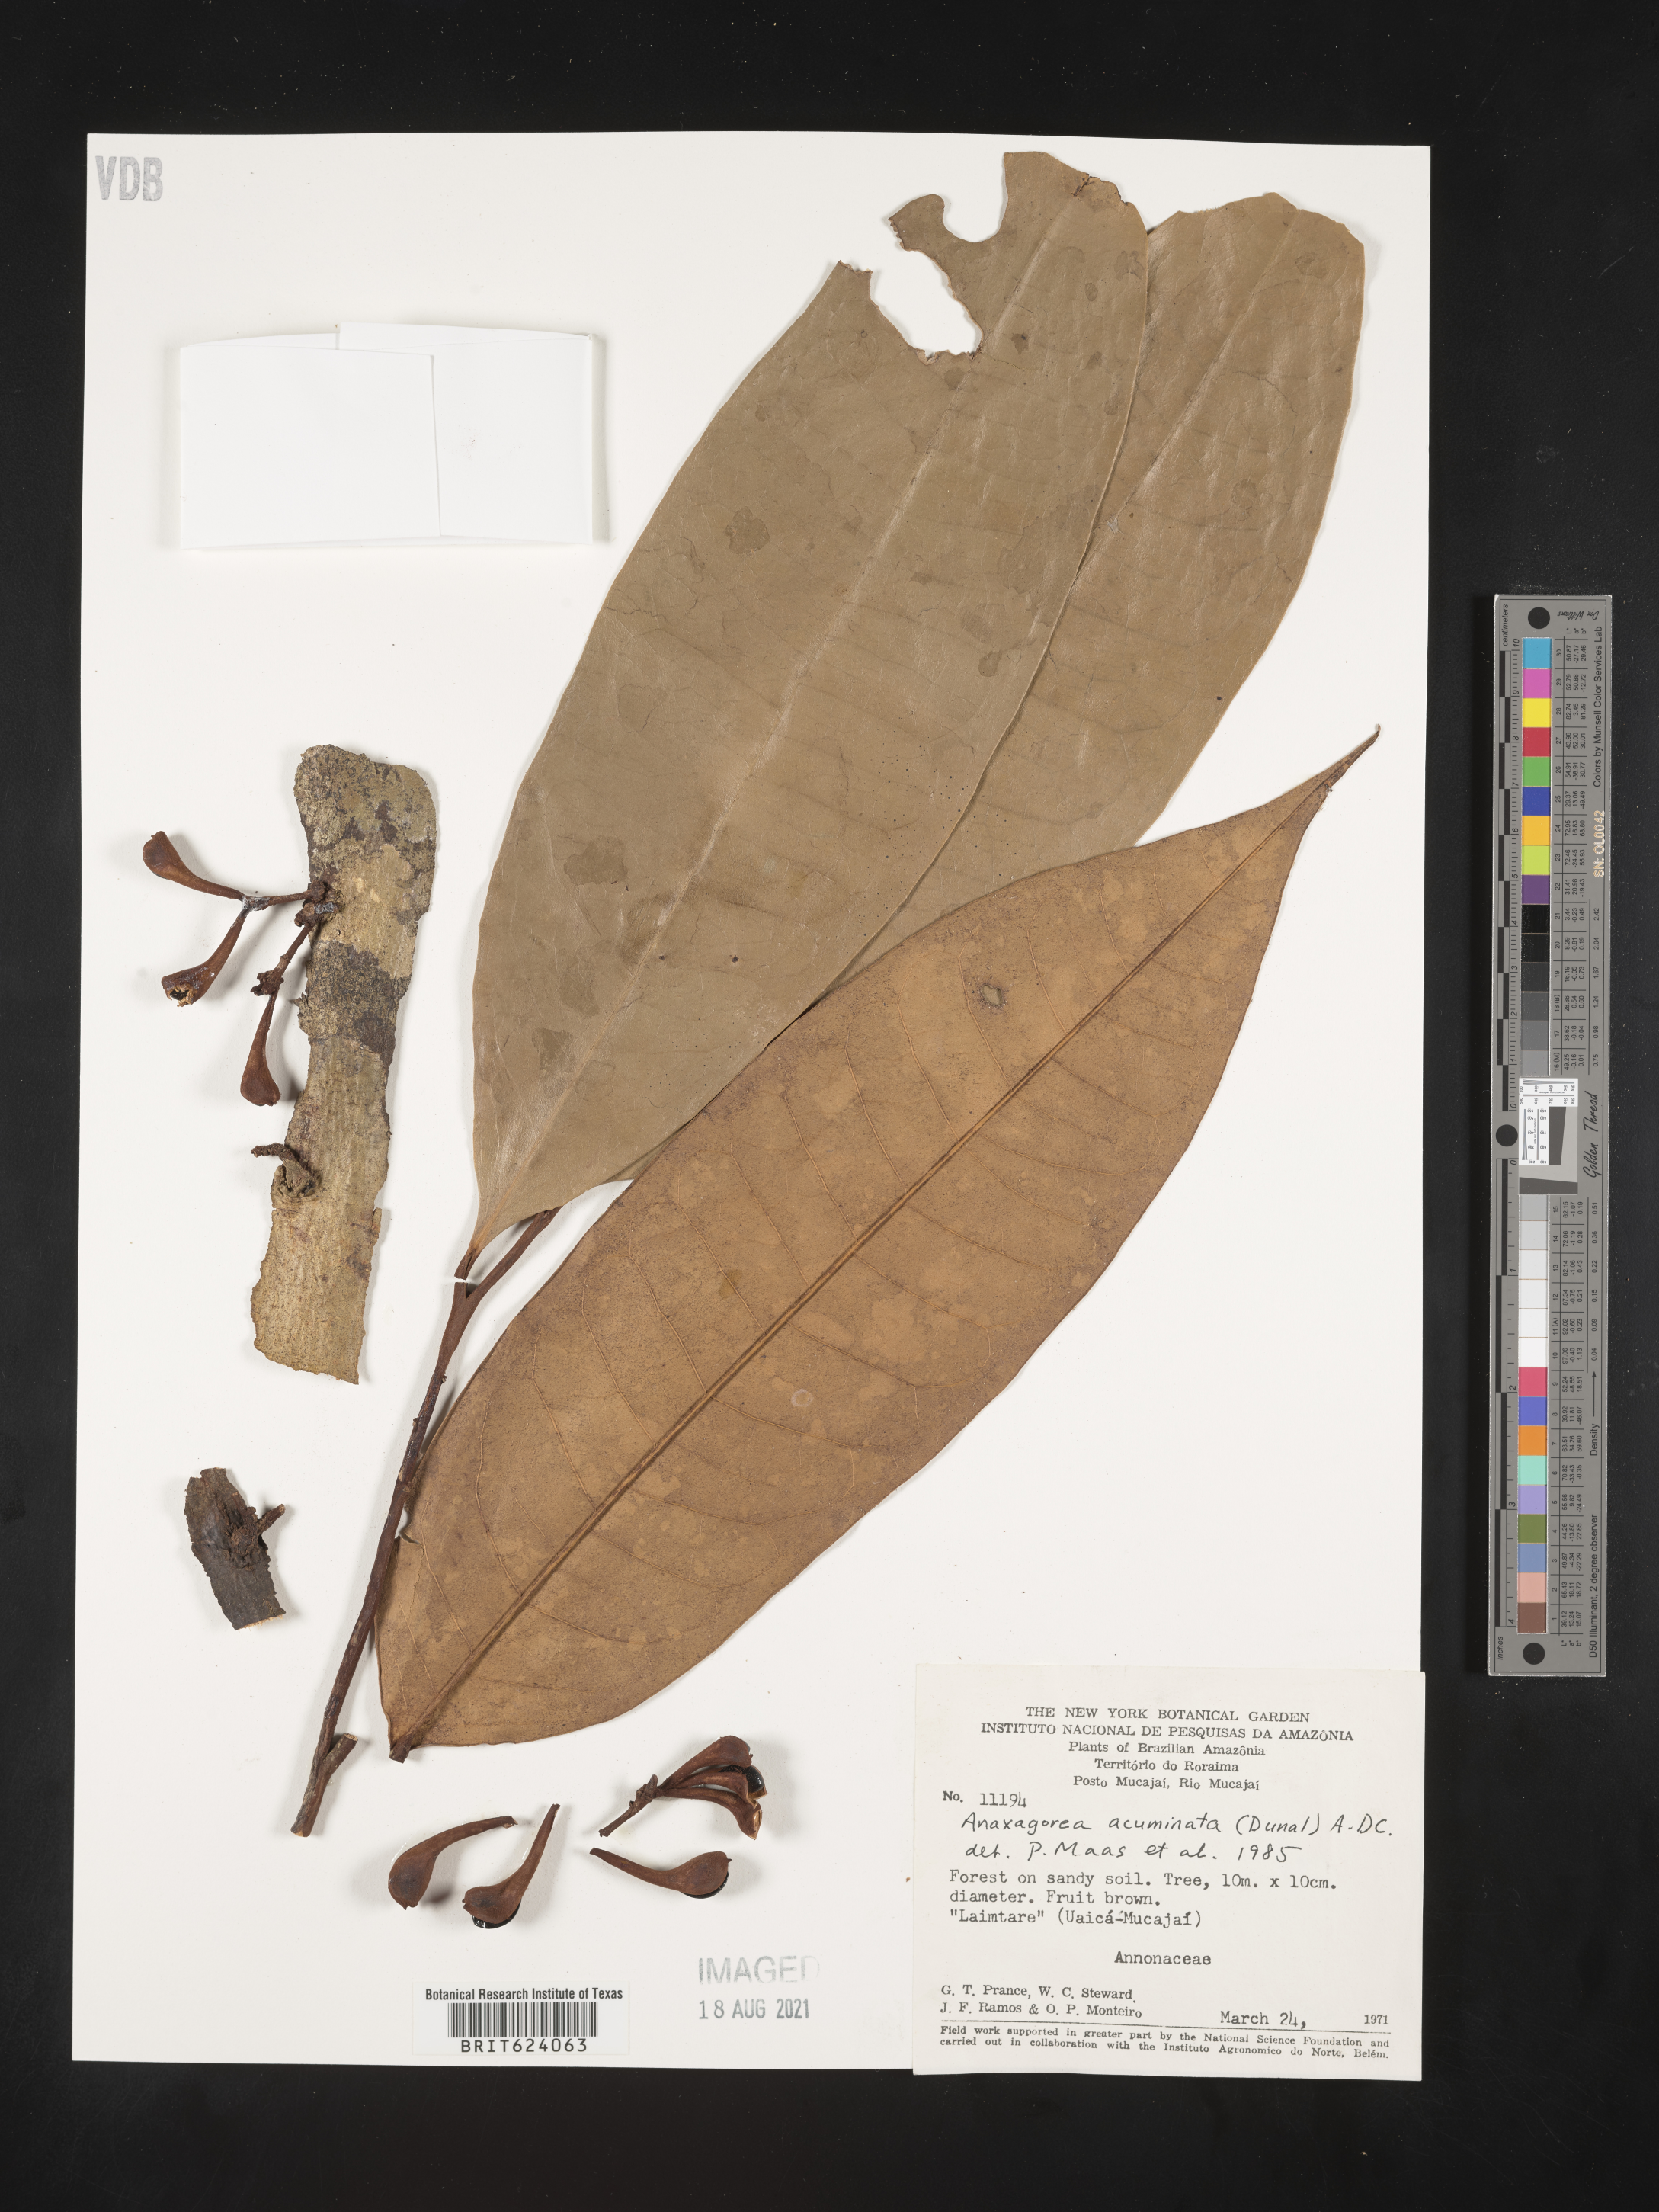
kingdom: Plantae
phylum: Tracheophyta
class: Magnoliopsida
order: Magnoliales
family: Annonaceae
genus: Anaxagorea
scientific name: Anaxagorea acuminata
